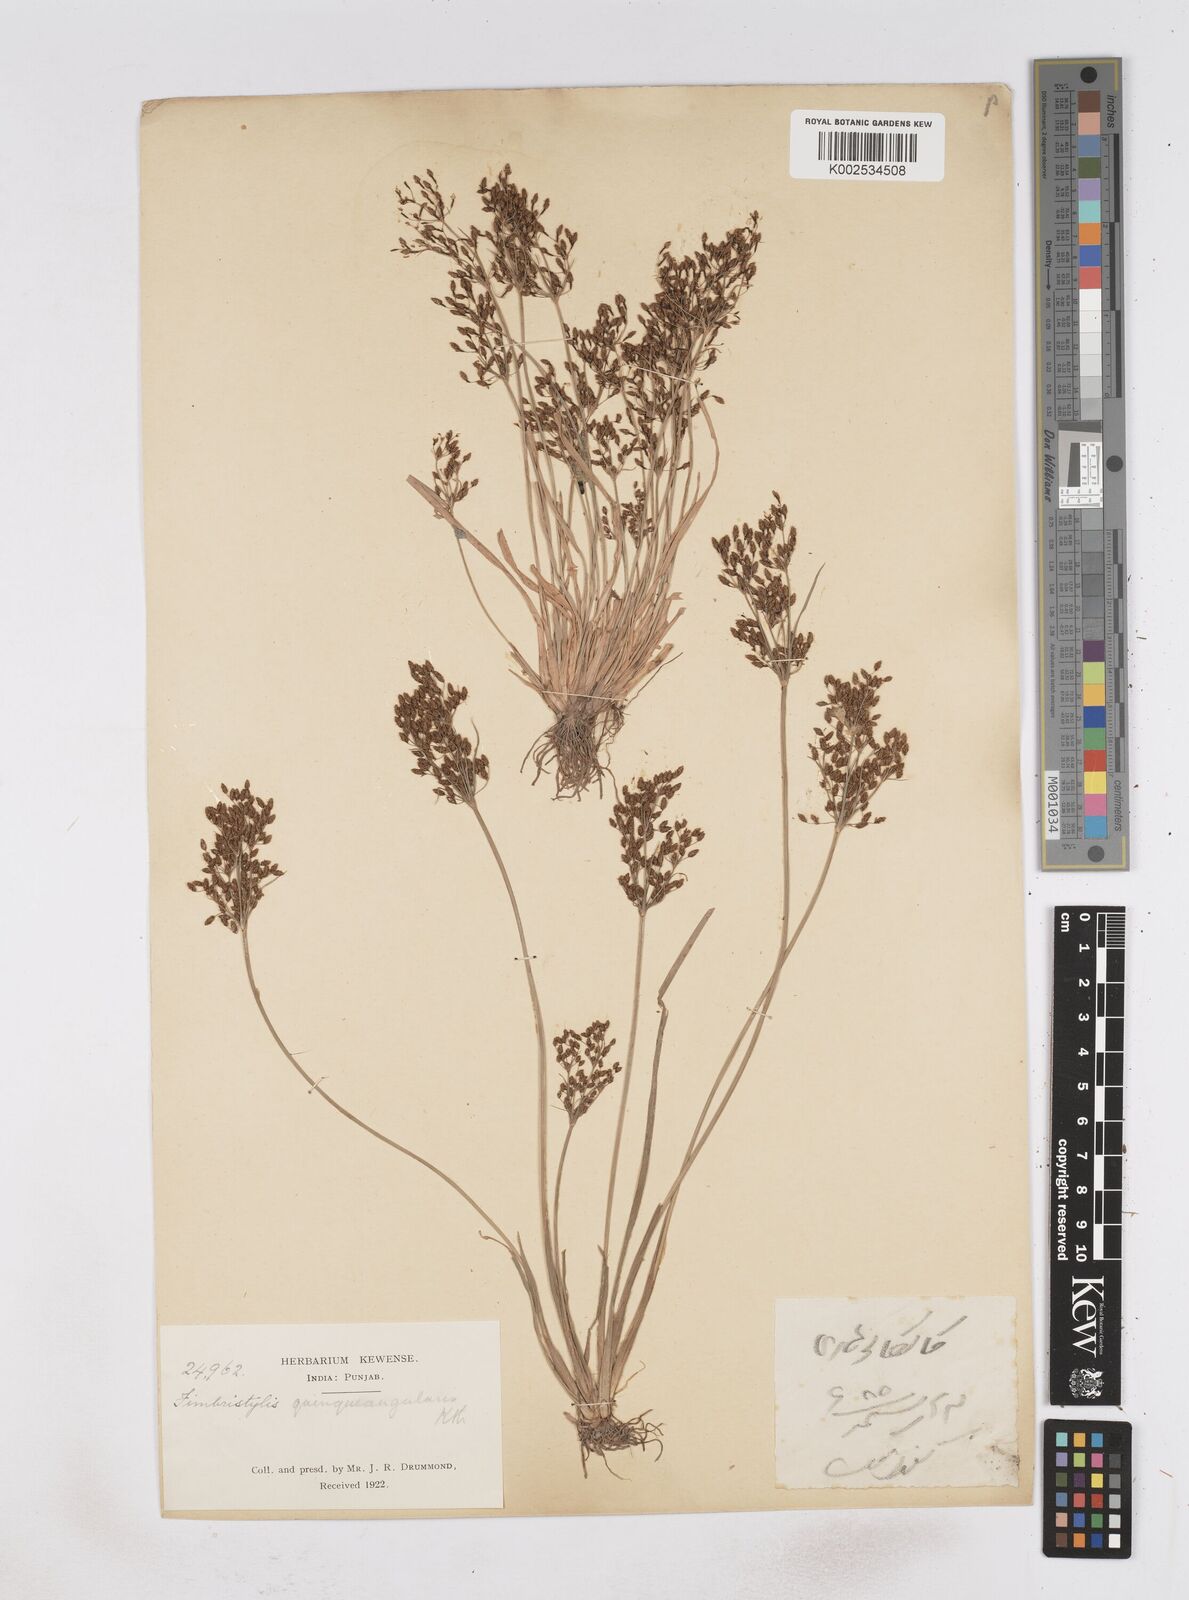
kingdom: Plantae
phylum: Tracheophyta
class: Liliopsida
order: Poales
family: Cyperaceae
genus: Fimbristylis
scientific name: Fimbristylis quinquangularis
